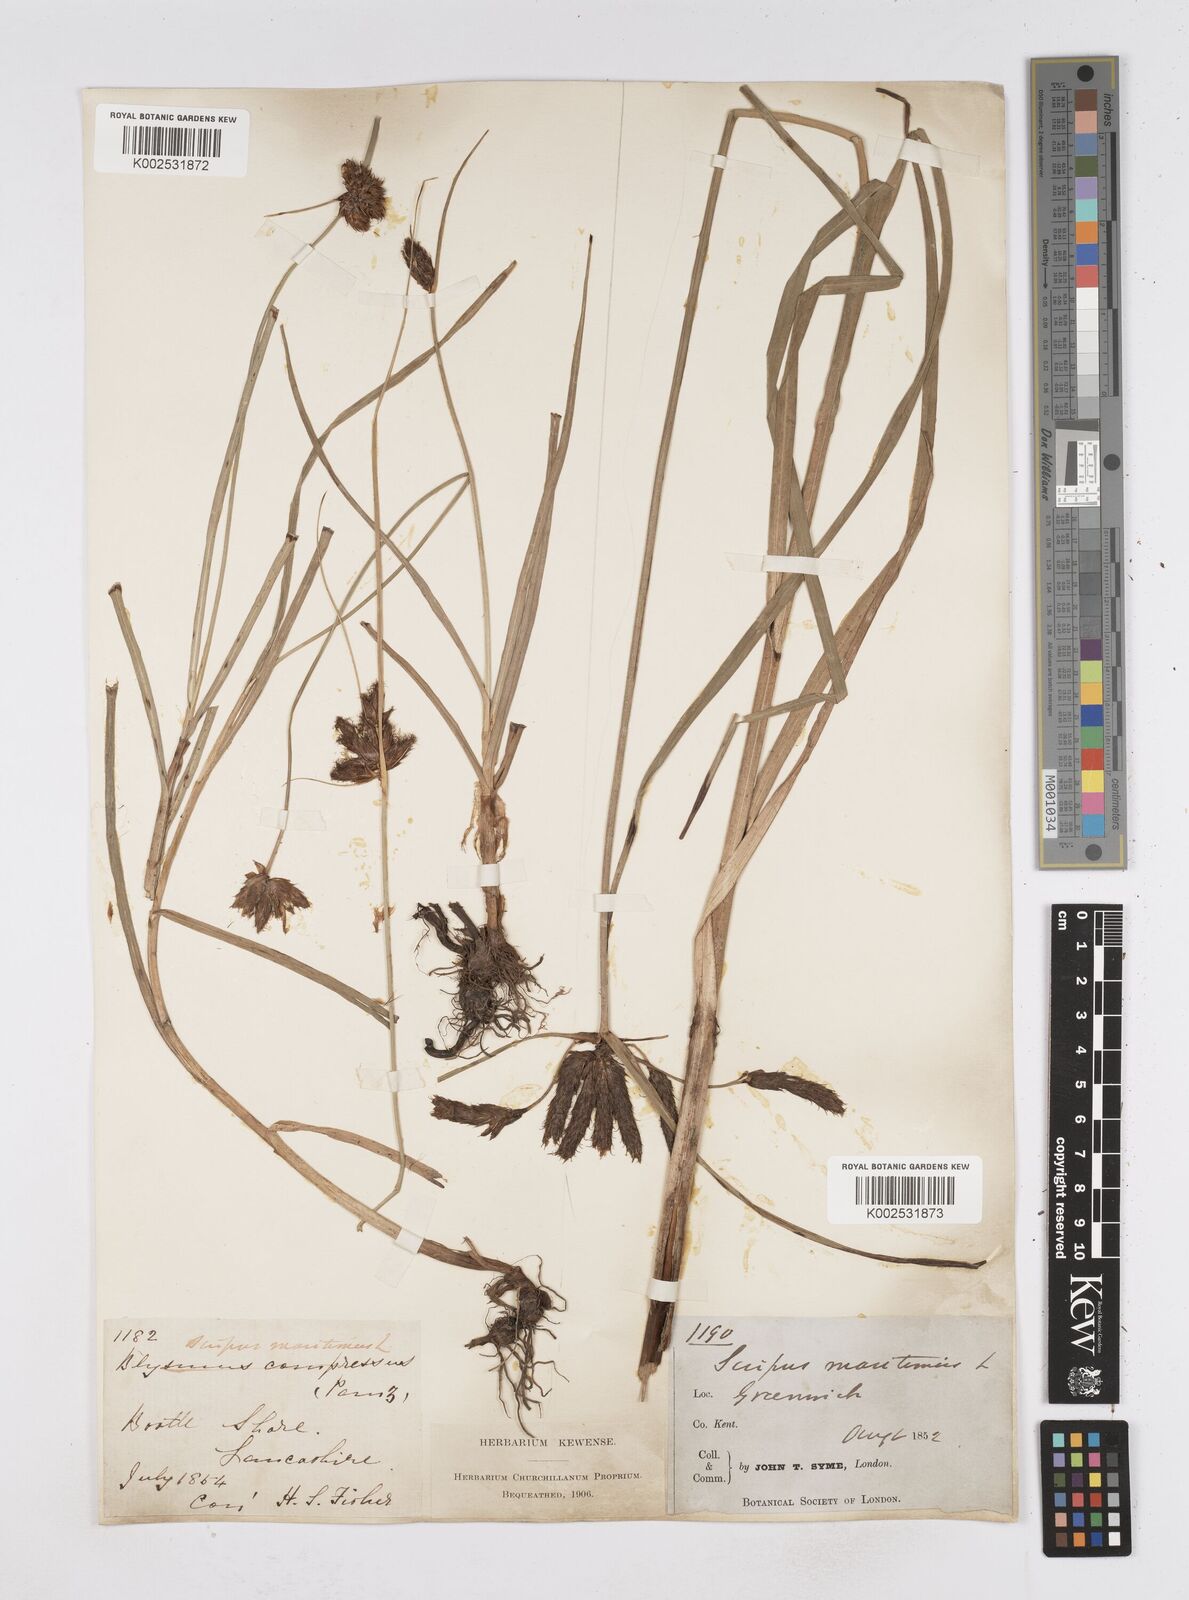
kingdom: Plantae
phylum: Tracheophyta
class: Liliopsida
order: Poales
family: Cyperaceae
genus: Bolboschoenus
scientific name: Bolboschoenus maritimus
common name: Sea club-rush
